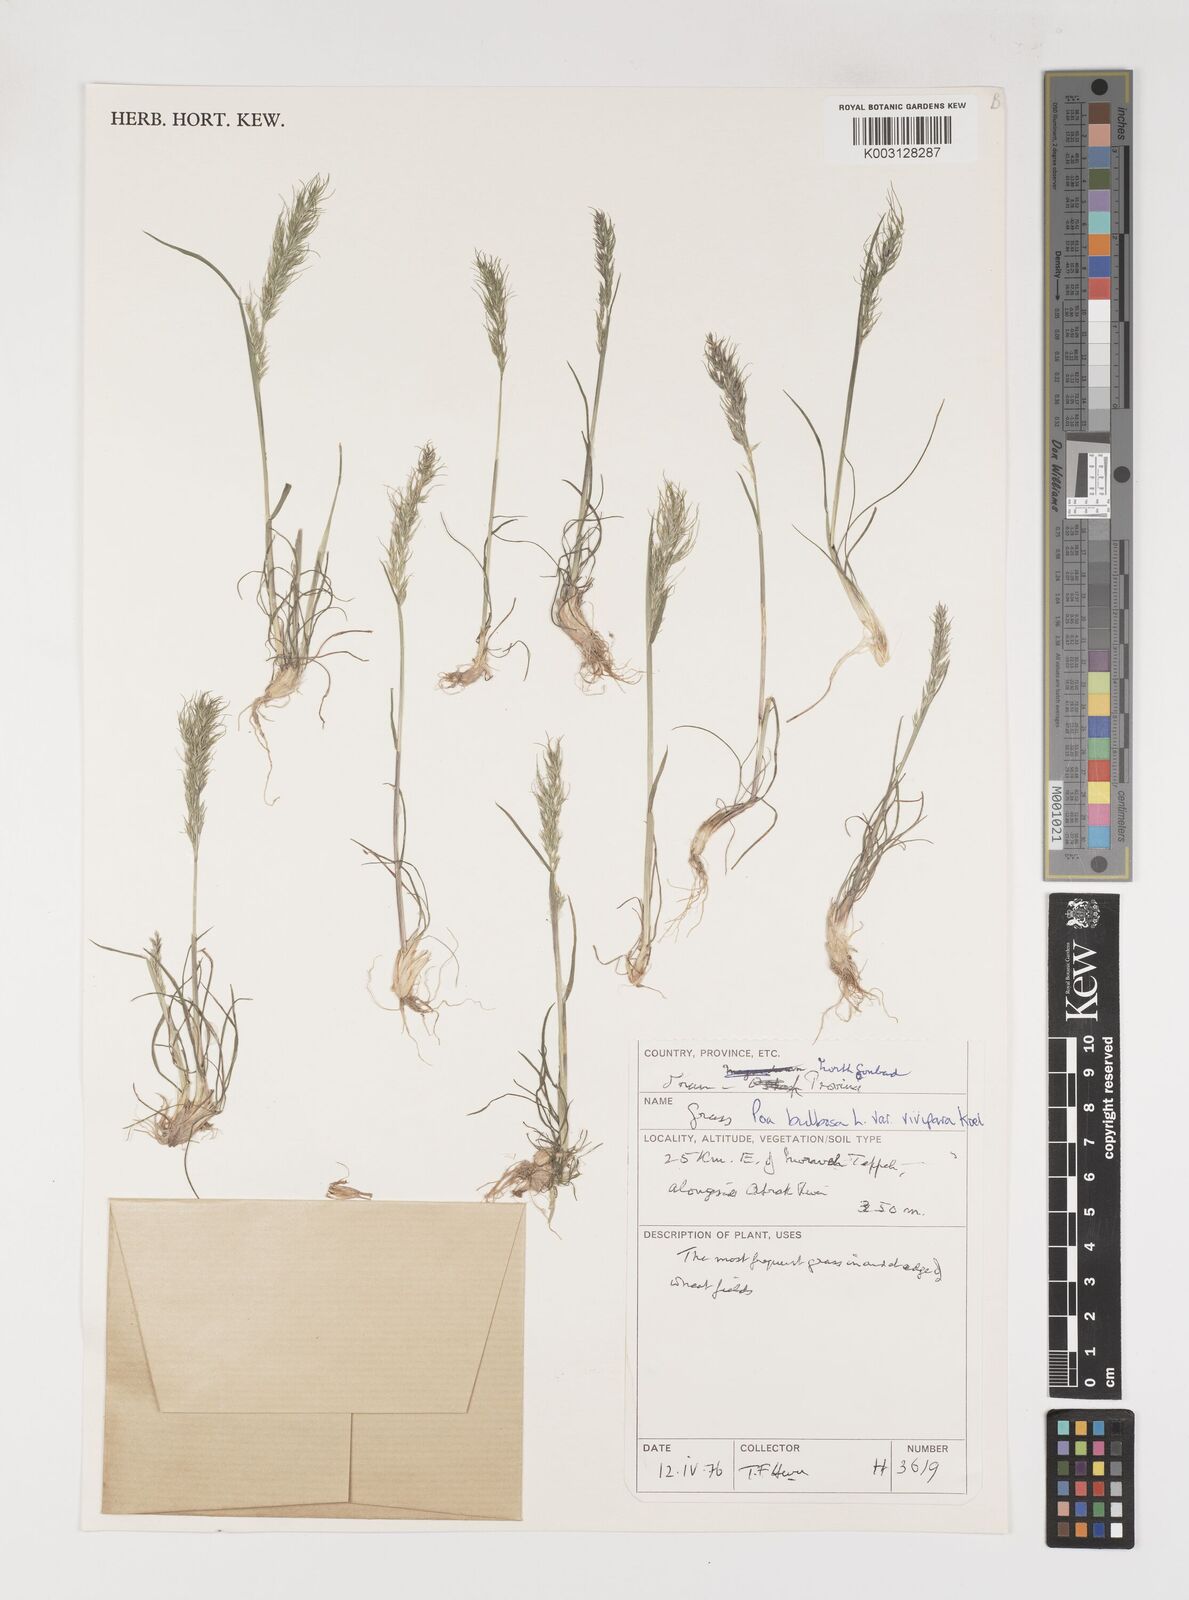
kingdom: Plantae
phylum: Tracheophyta
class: Liliopsida
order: Poales
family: Poaceae
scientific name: Poaceae
